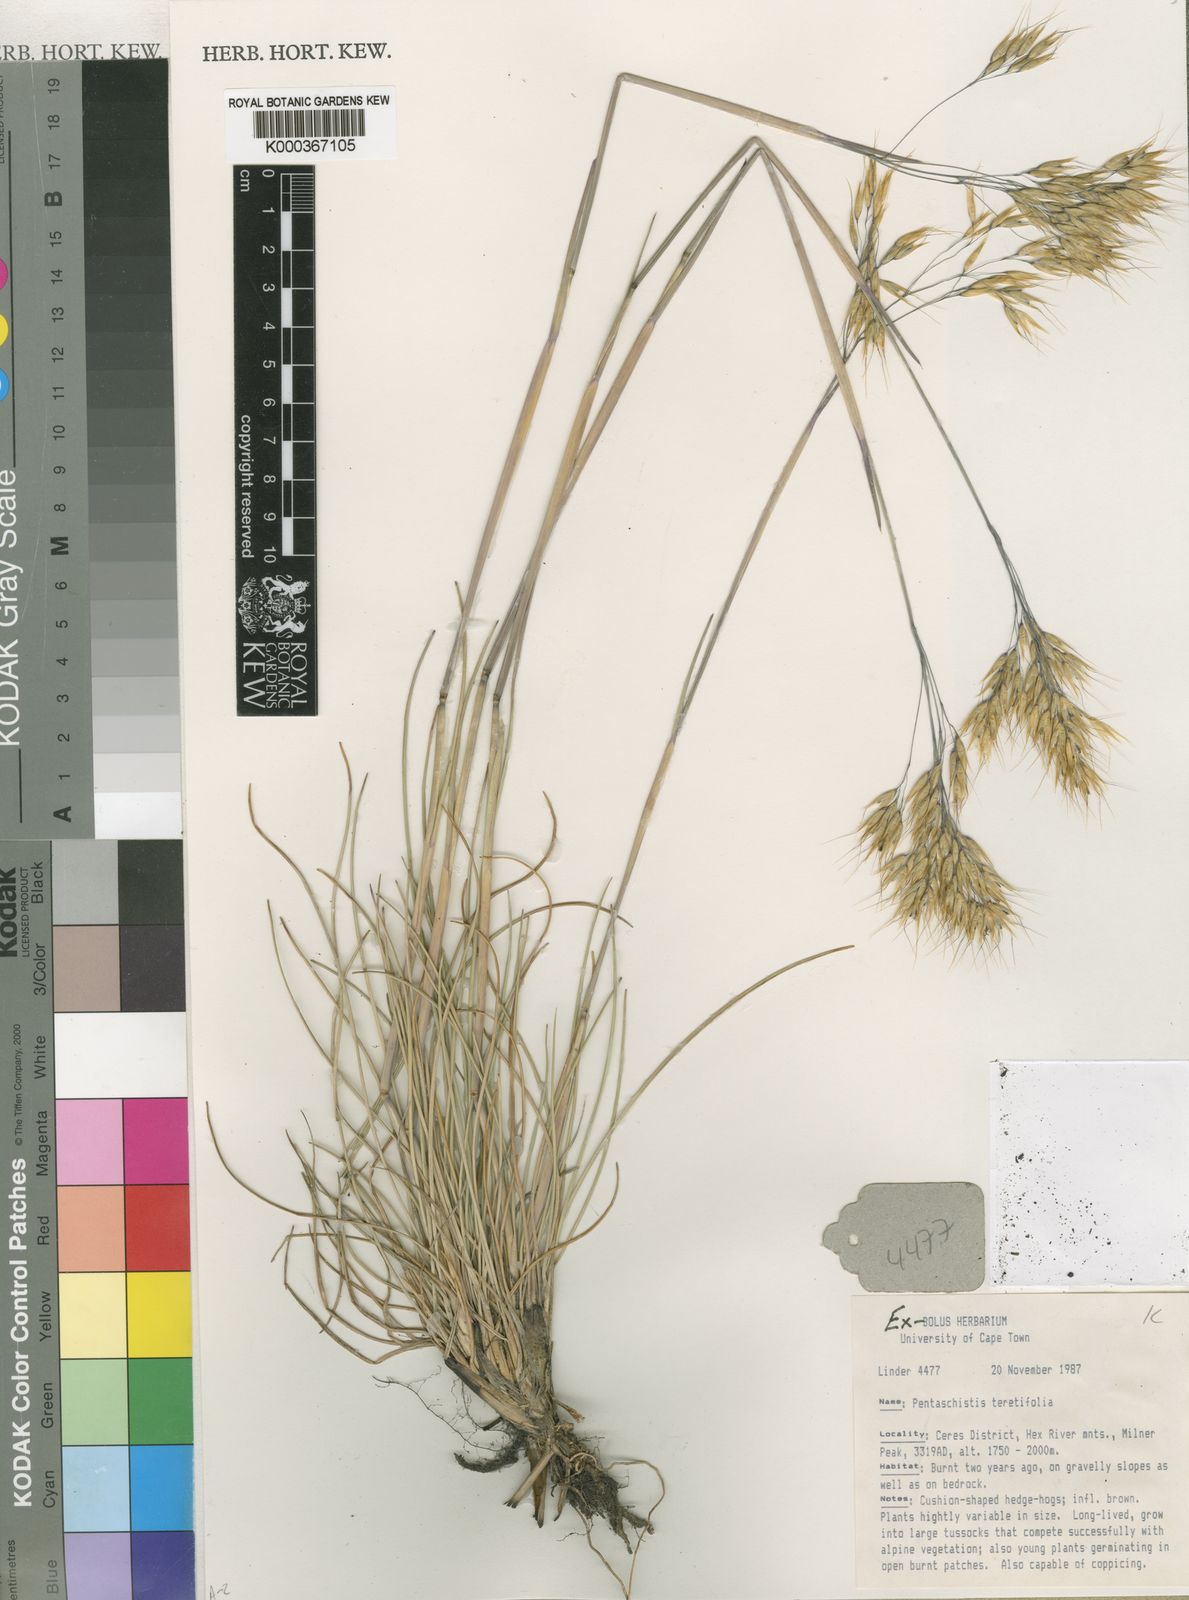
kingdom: Plantae
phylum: Tracheophyta
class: Liliopsida
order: Poales
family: Poaceae
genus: Pentameris
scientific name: Pentameris pyrophila
